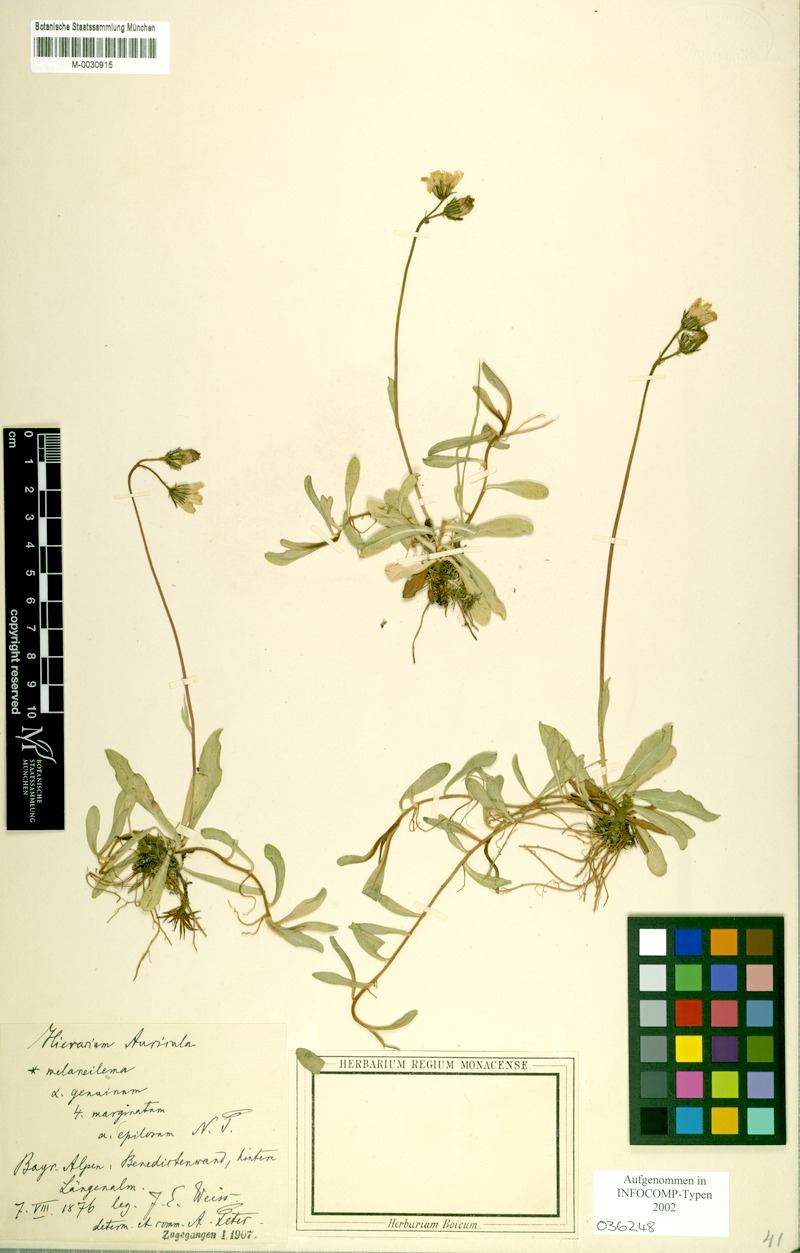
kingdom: Plantae
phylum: Tracheophyta
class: Magnoliopsida
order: Asterales
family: Asteraceae
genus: Pilosella
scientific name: Pilosella lactucella
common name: Glaucous fox-and-cubs
